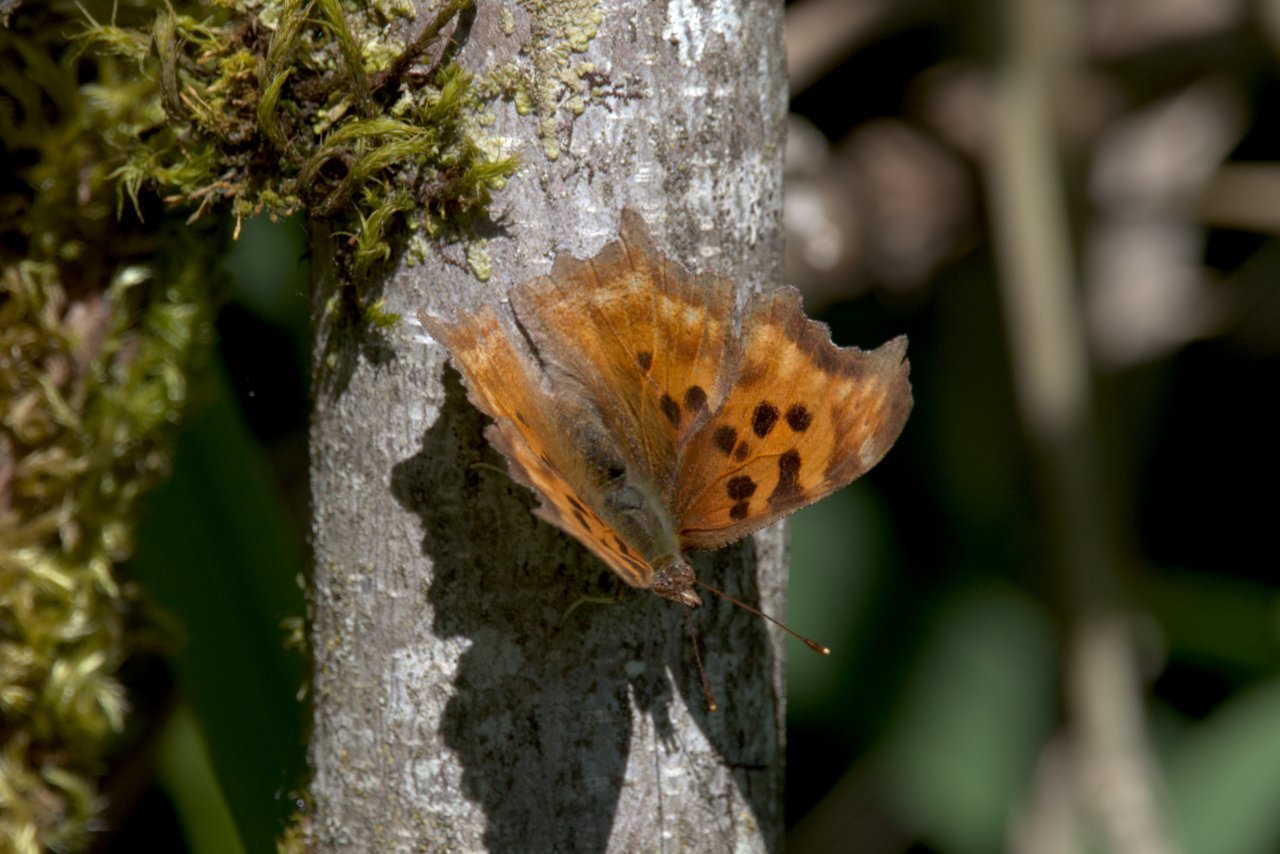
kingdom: Animalia
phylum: Arthropoda
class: Insecta
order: Lepidoptera
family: Nymphalidae
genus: Polygonia
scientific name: Polygonia satyrus
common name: Satyr Comma
